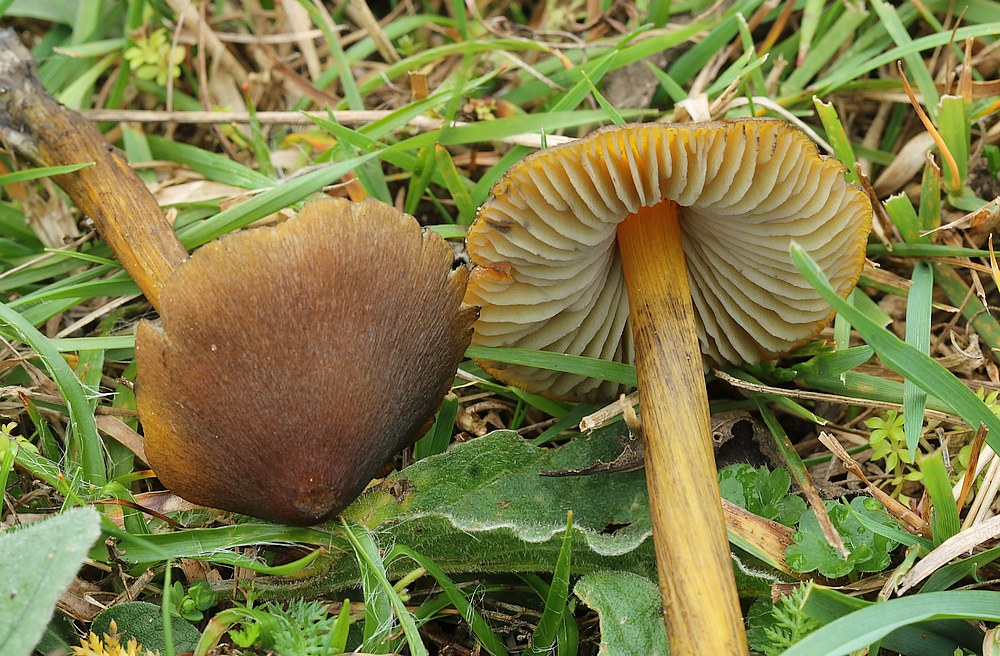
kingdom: Fungi
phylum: Basidiomycota
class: Agaricomycetes
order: Agaricales
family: Hygrophoraceae
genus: Hygrocybe
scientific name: Hygrocybe conica
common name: kegle-vokshat
